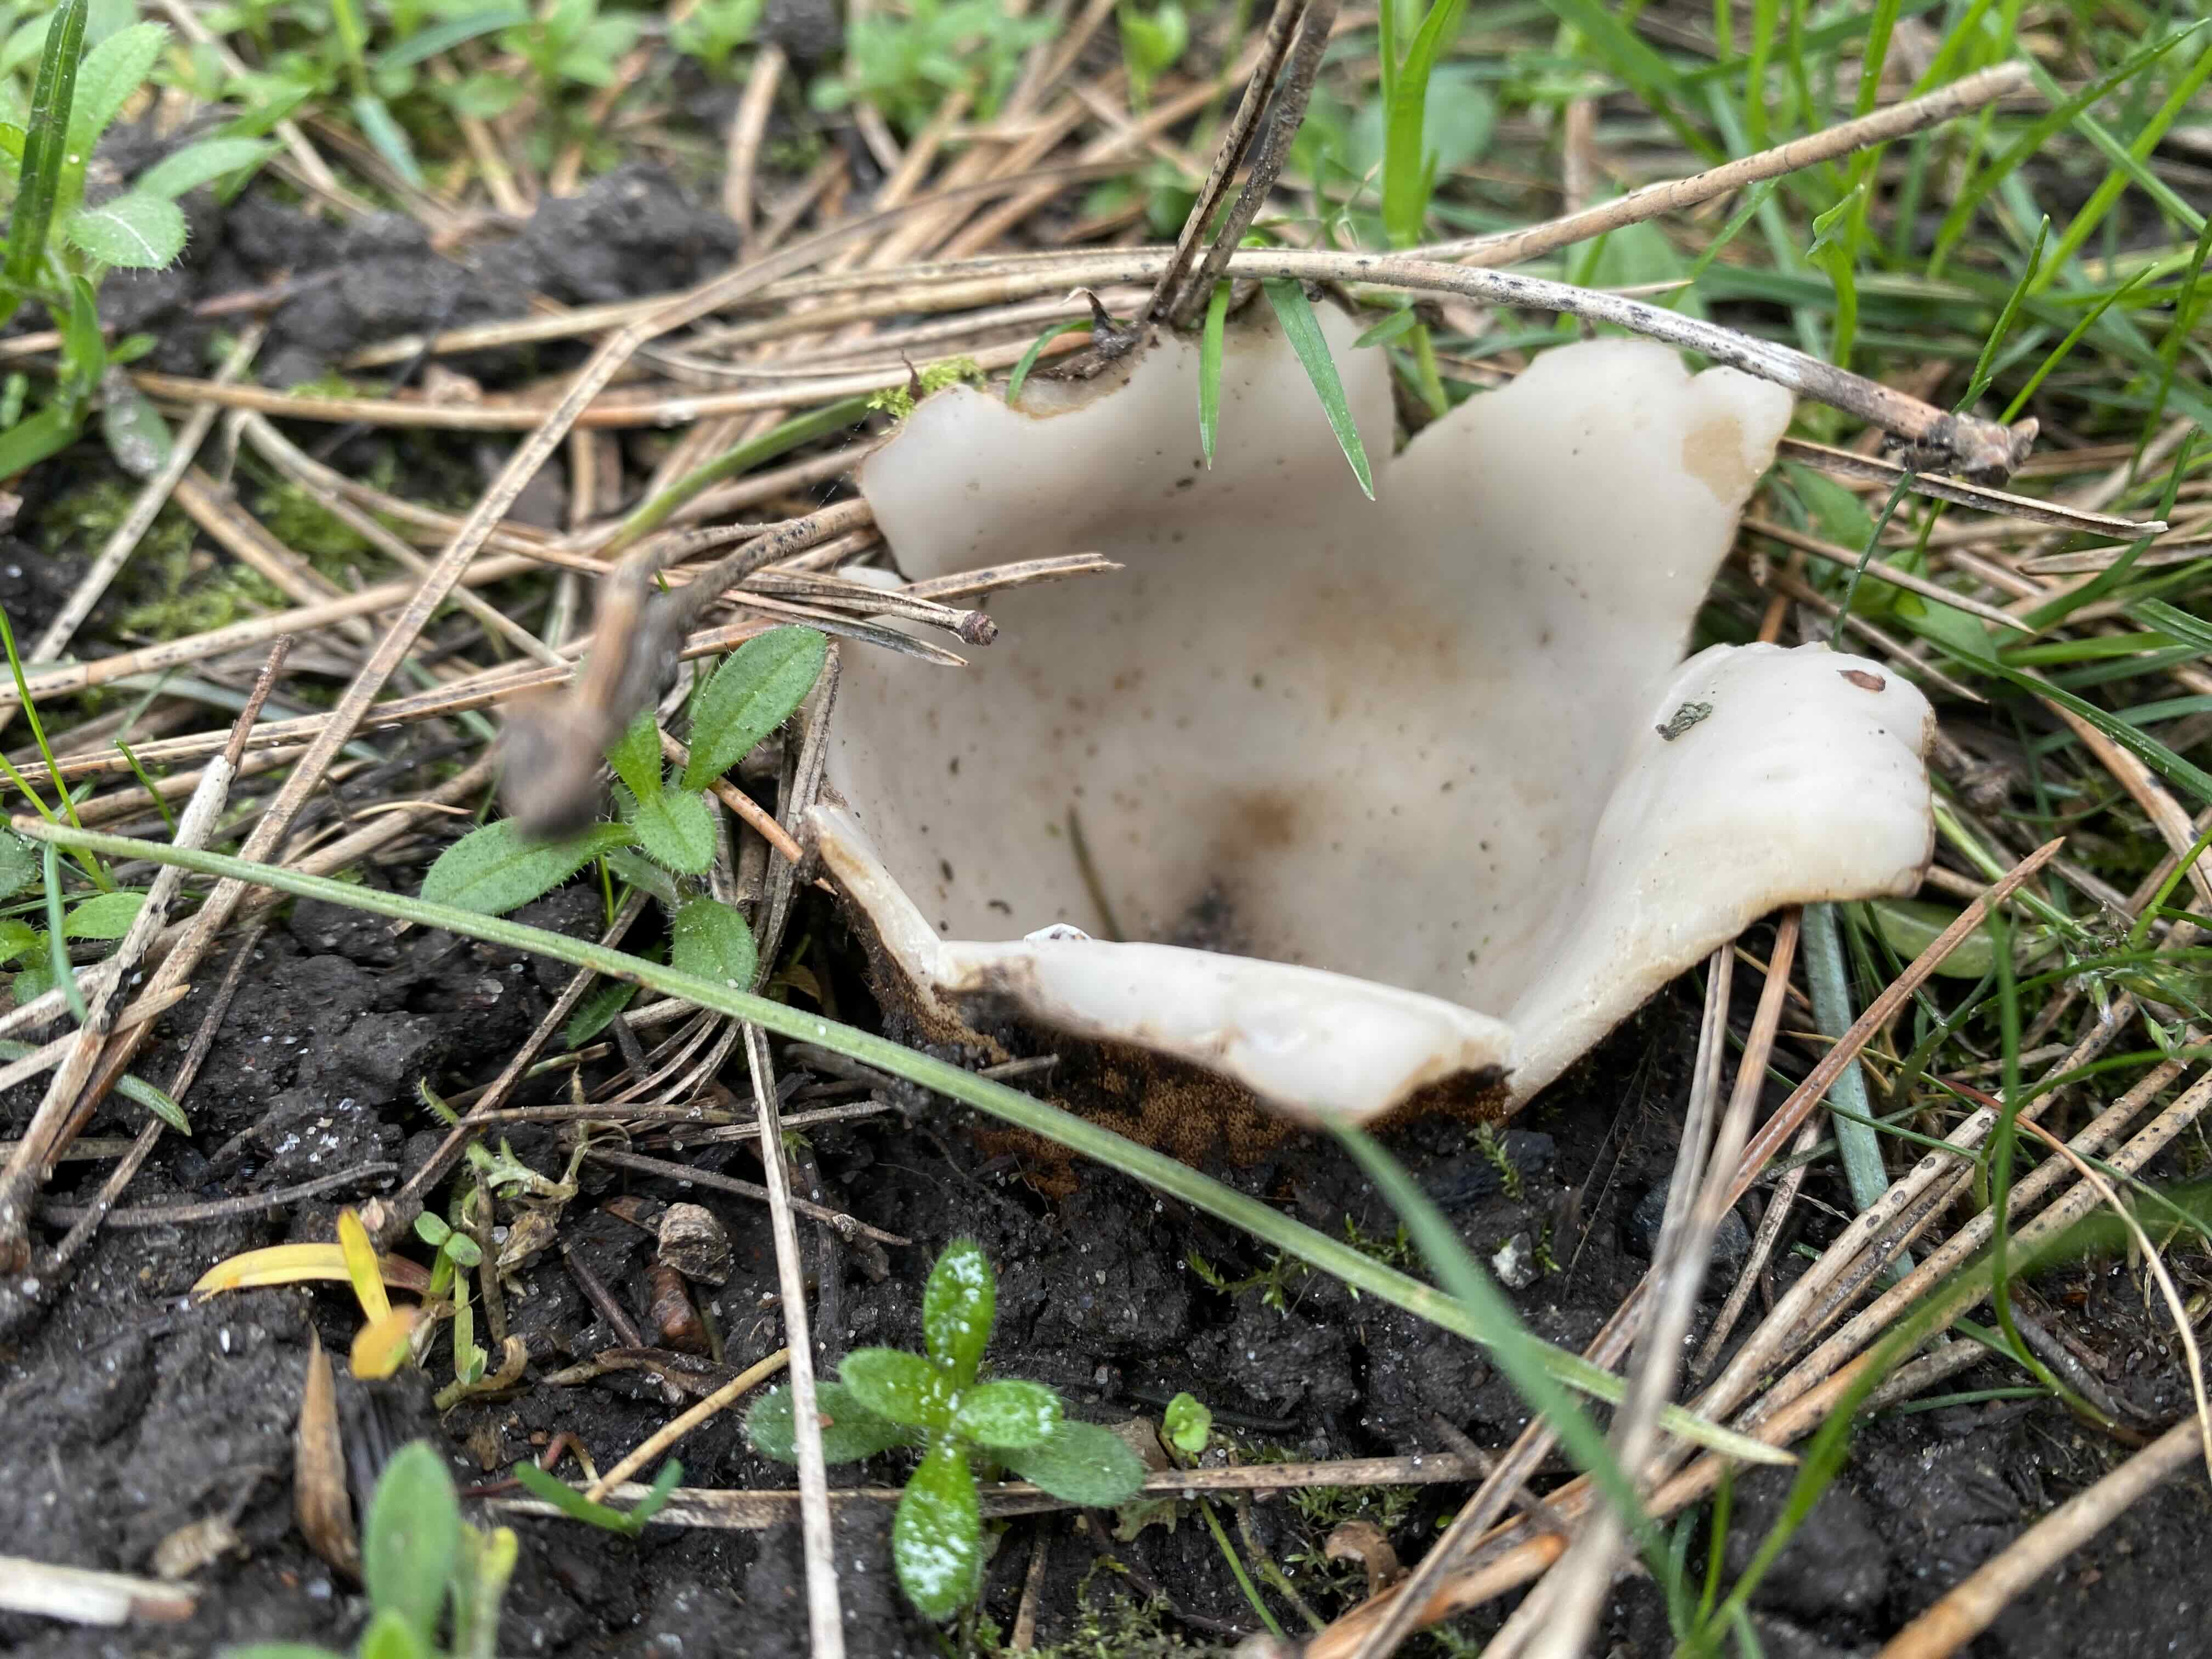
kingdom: Fungi
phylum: Ascomycota
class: Pezizomycetes
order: Pezizales
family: Pyronemataceae
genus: Geopora
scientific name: Geopora sumneriana
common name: vår-jordbæger
